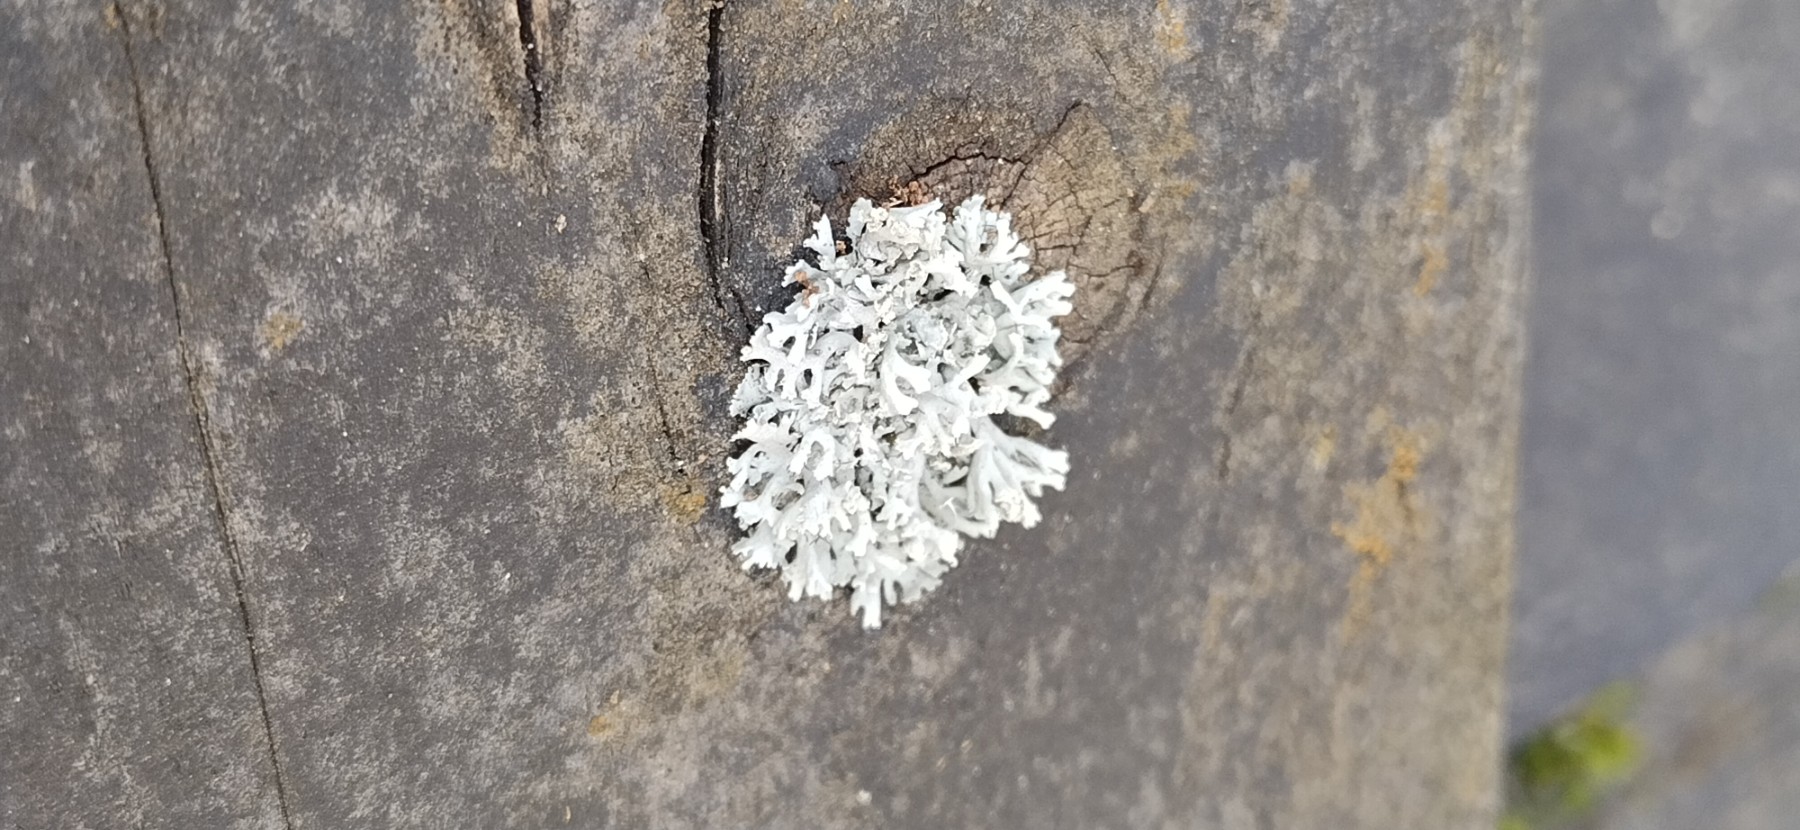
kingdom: Fungi
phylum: Ascomycota
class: Lecanoromycetes
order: Caliciales
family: Physciaceae
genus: Physcia
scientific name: Physcia tenella
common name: spæd rosetlav
